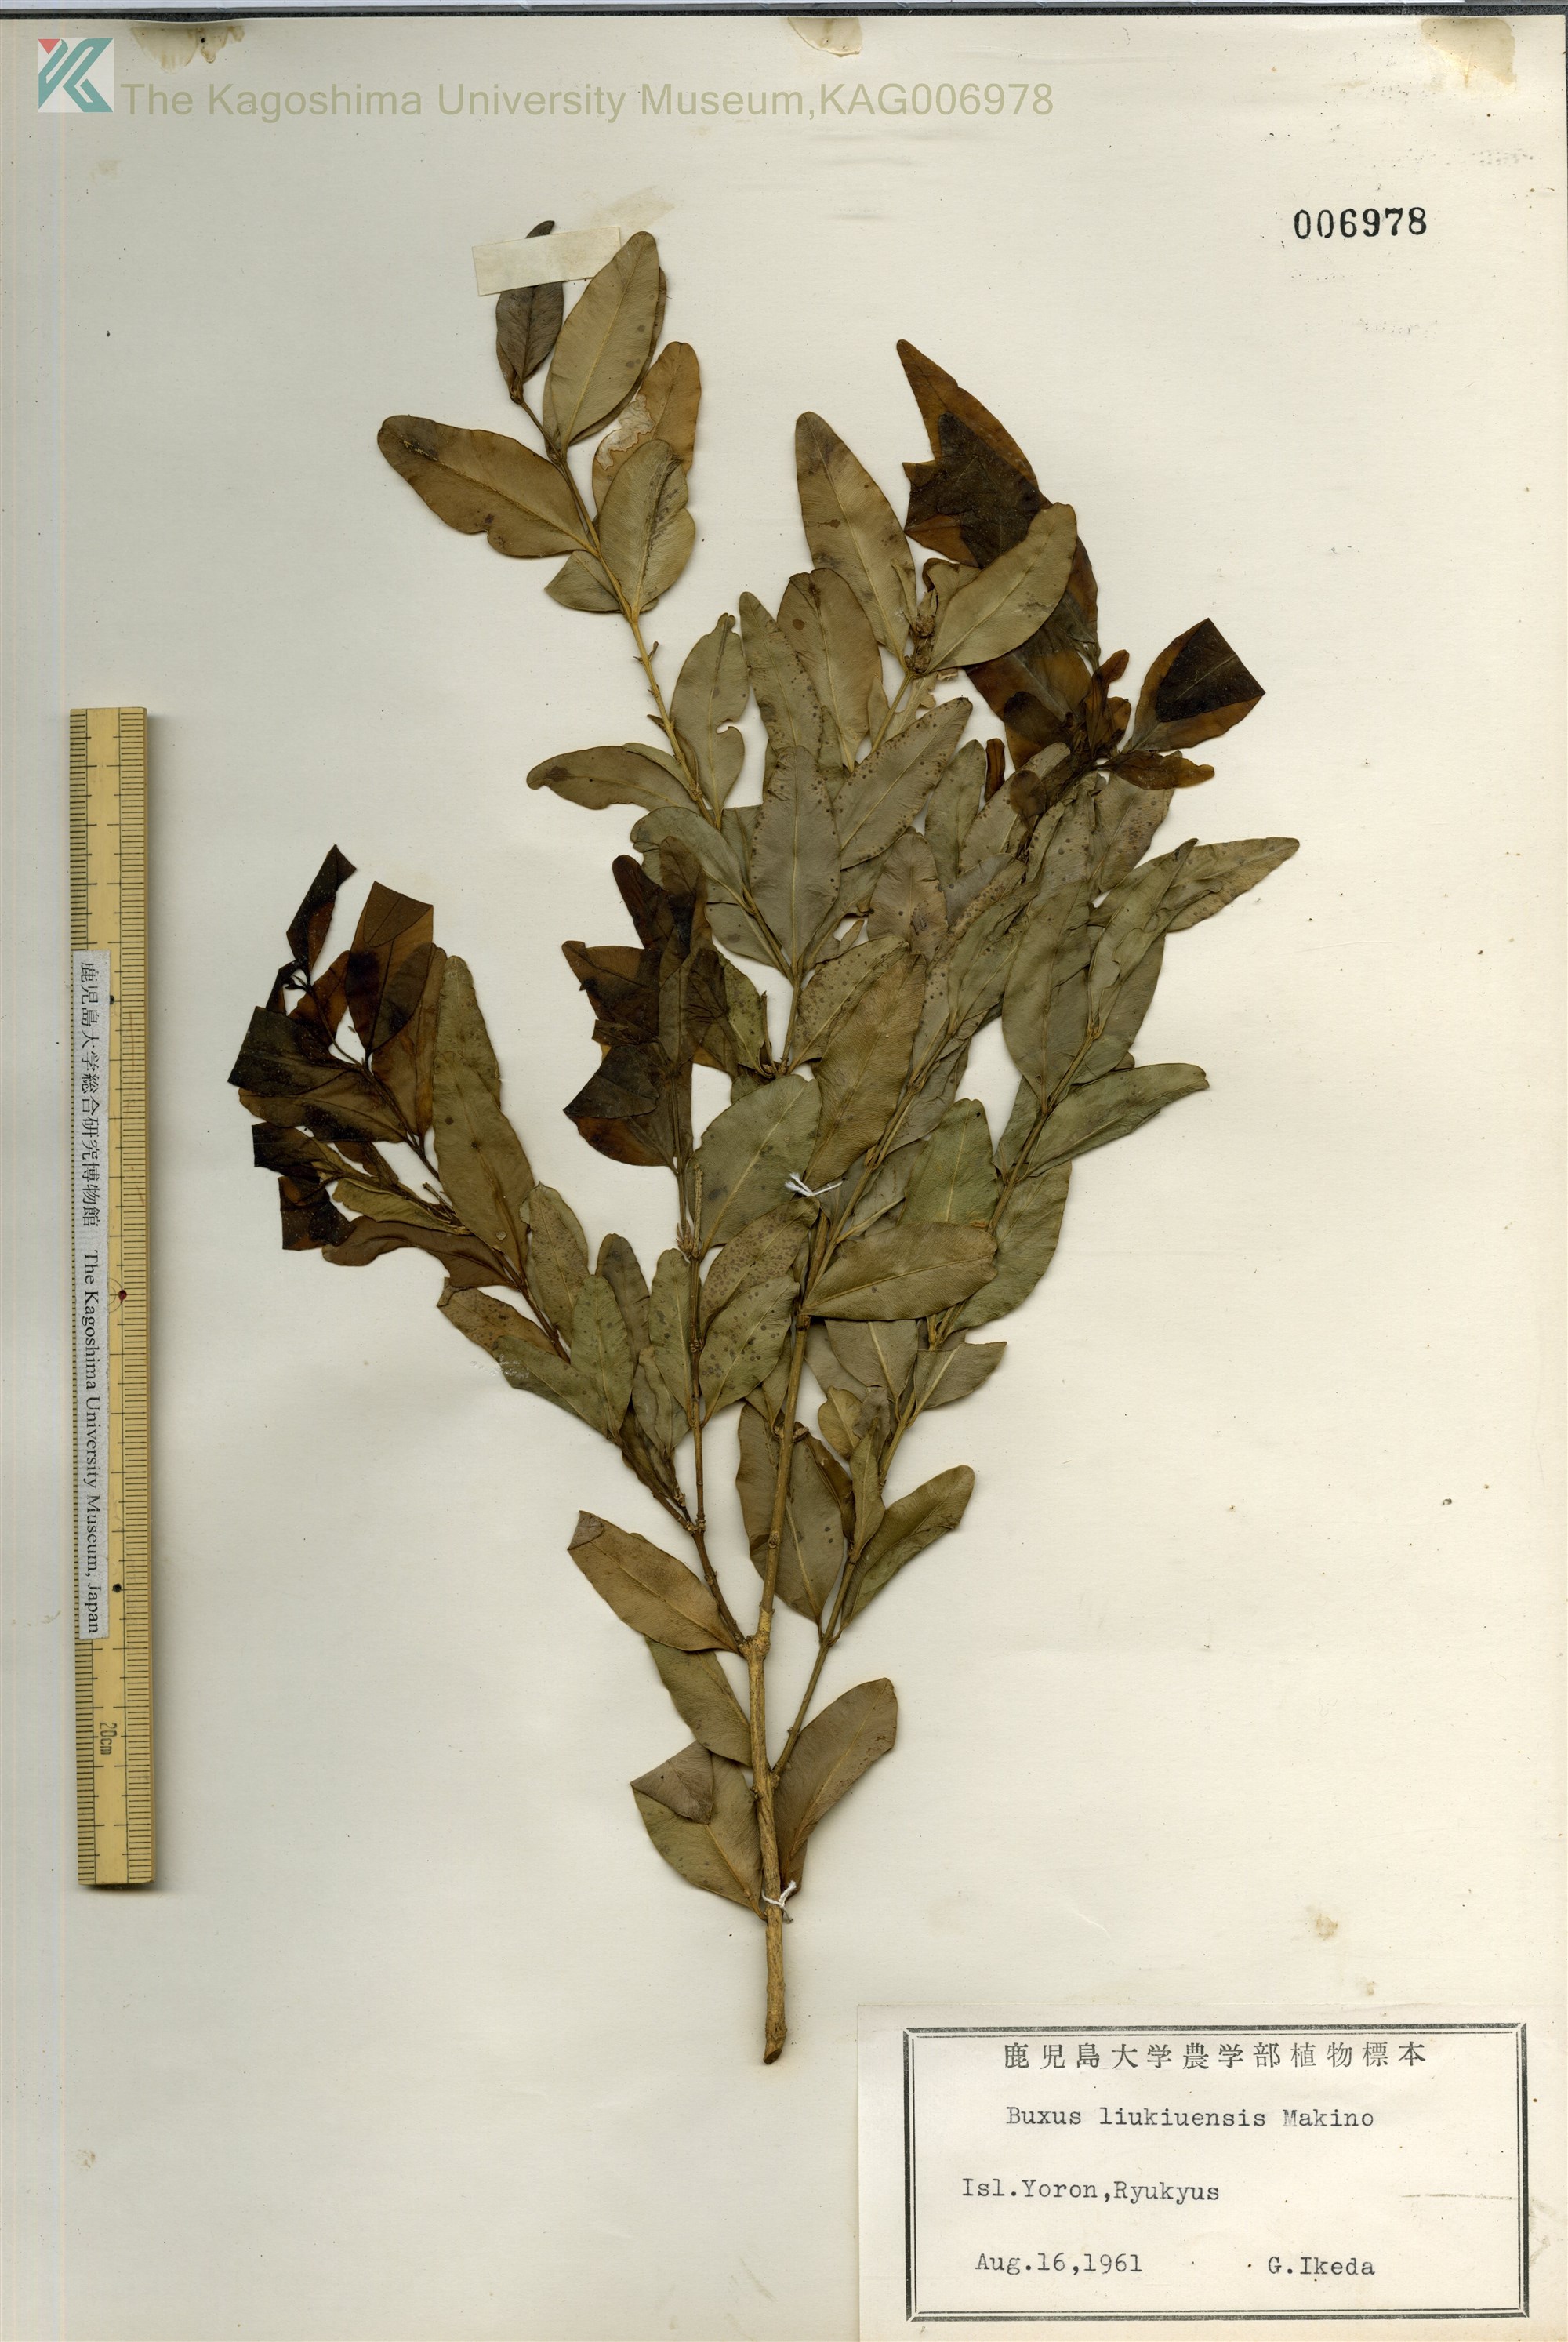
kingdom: Plantae
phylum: Tracheophyta
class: Magnoliopsida
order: Buxales
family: Buxaceae
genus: Buxus
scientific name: Buxus liukiuensis
